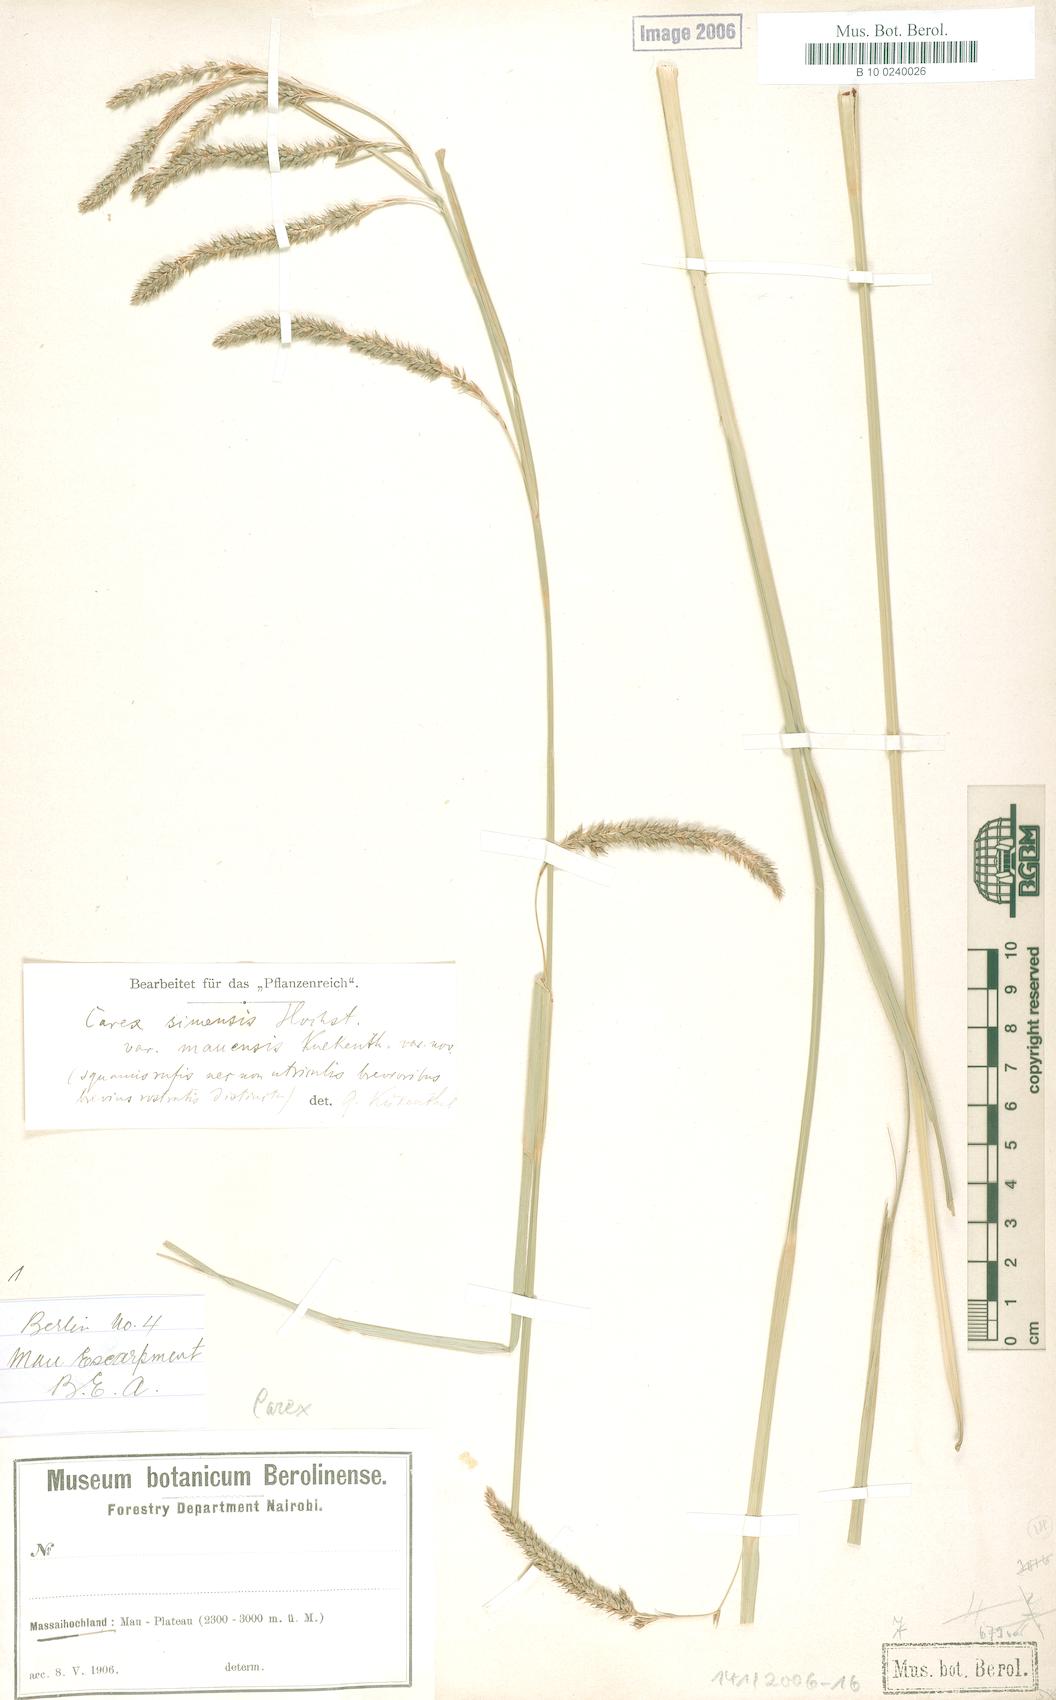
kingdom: Plantae
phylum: Tracheophyta
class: Liliopsida
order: Poales
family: Cyperaceae
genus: Carex
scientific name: Carex fischeri
